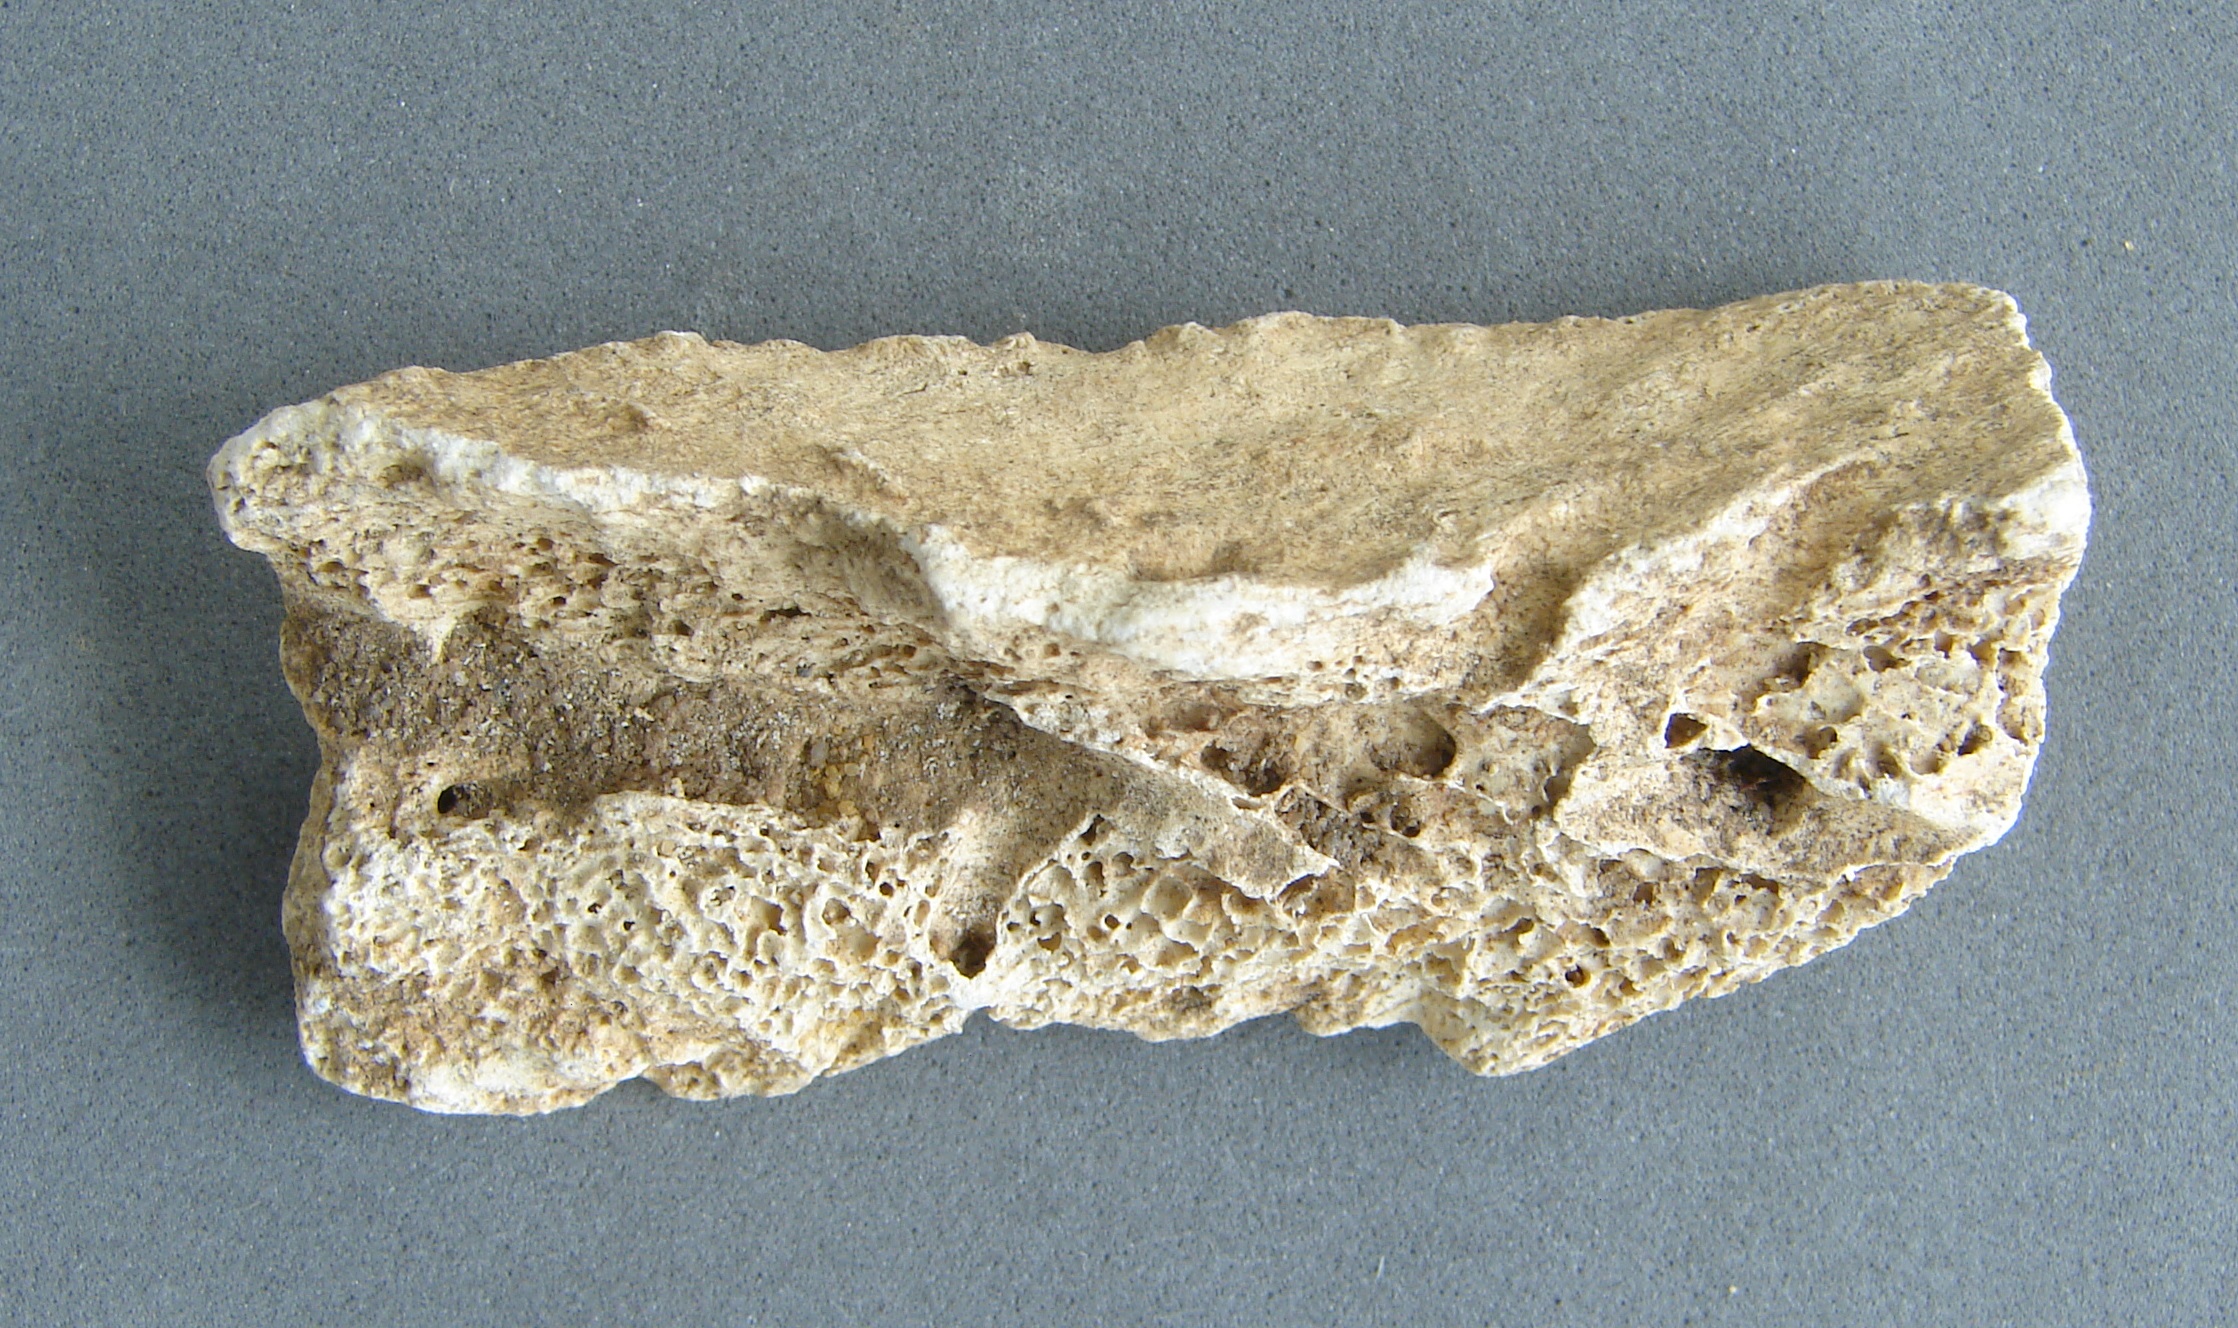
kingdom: Animalia
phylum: Chordata
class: Mammalia
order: Artiodactyla
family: Bovidae
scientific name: Bovidae
